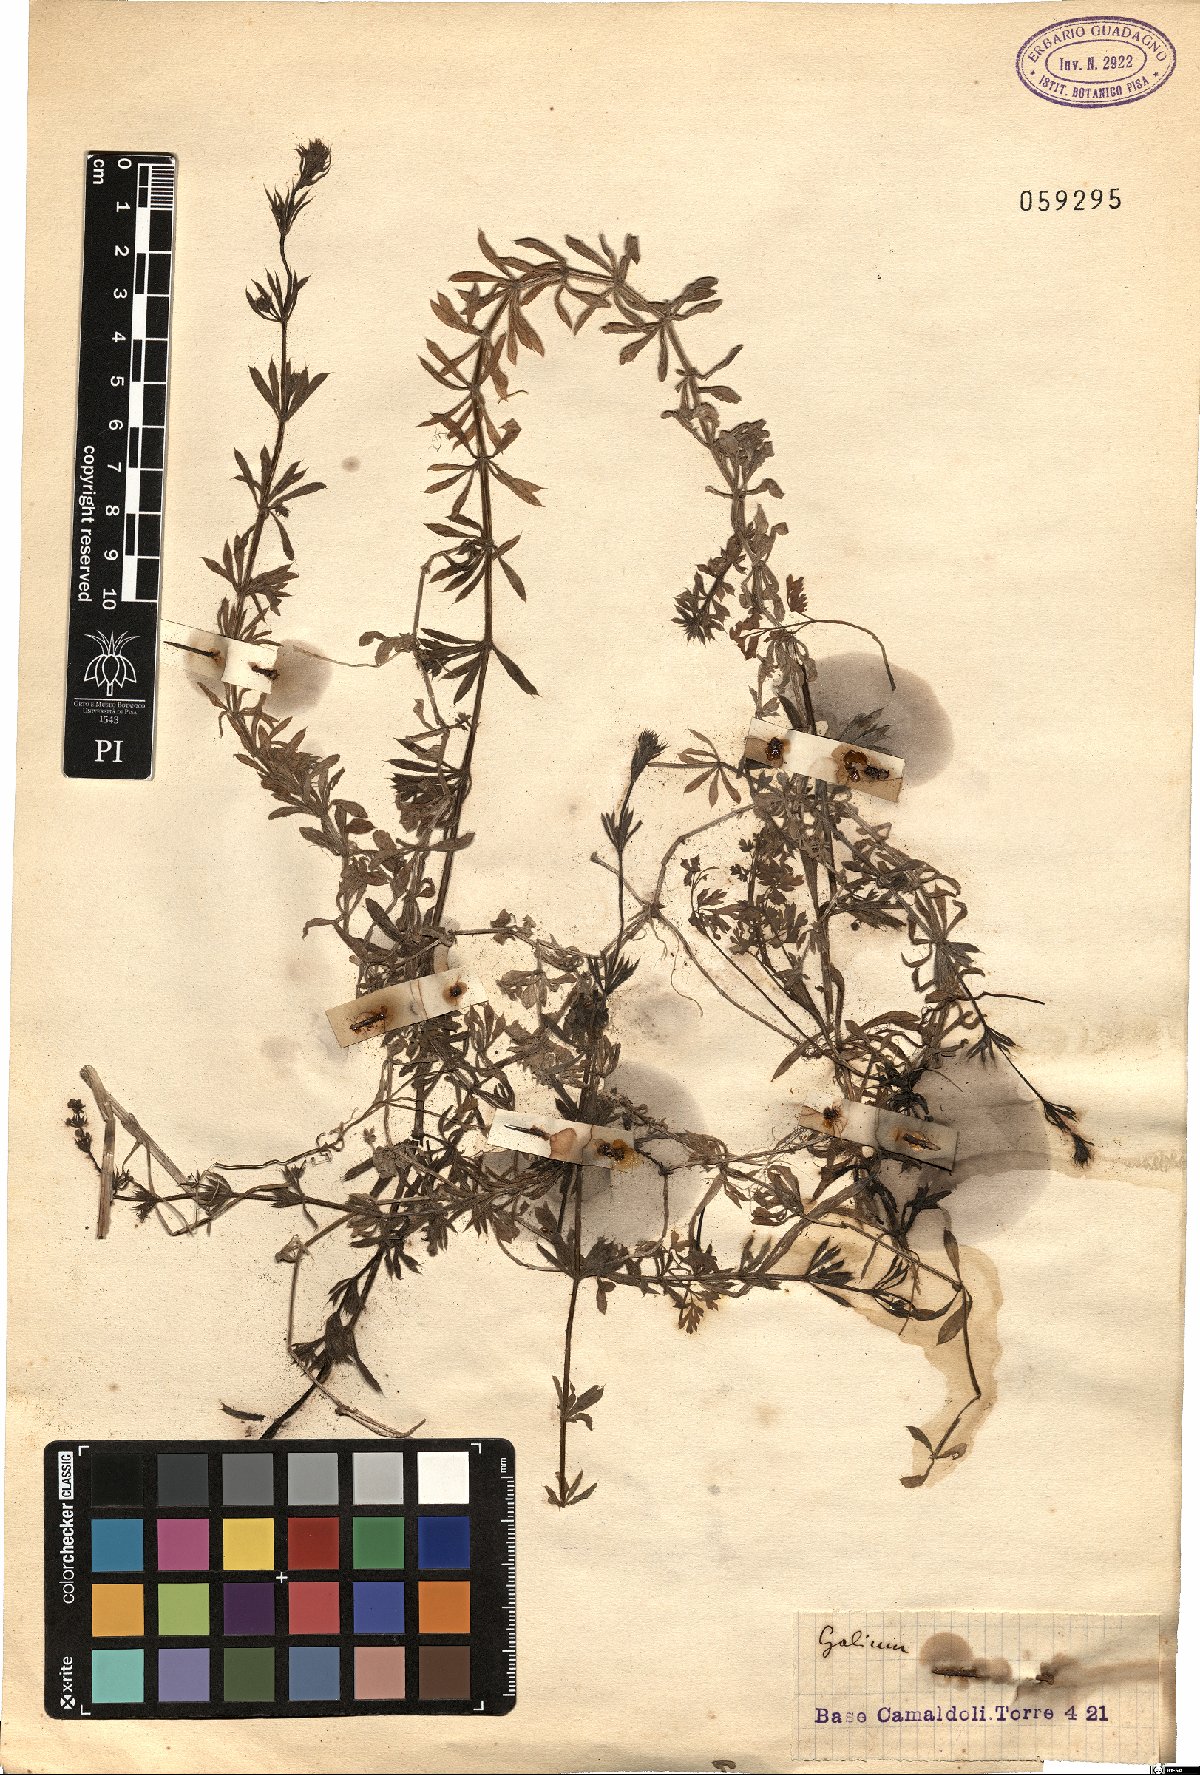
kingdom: Plantae
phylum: Tracheophyta
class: Magnoliopsida
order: Gentianales
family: Rubiaceae
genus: Galium
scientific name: Galium
